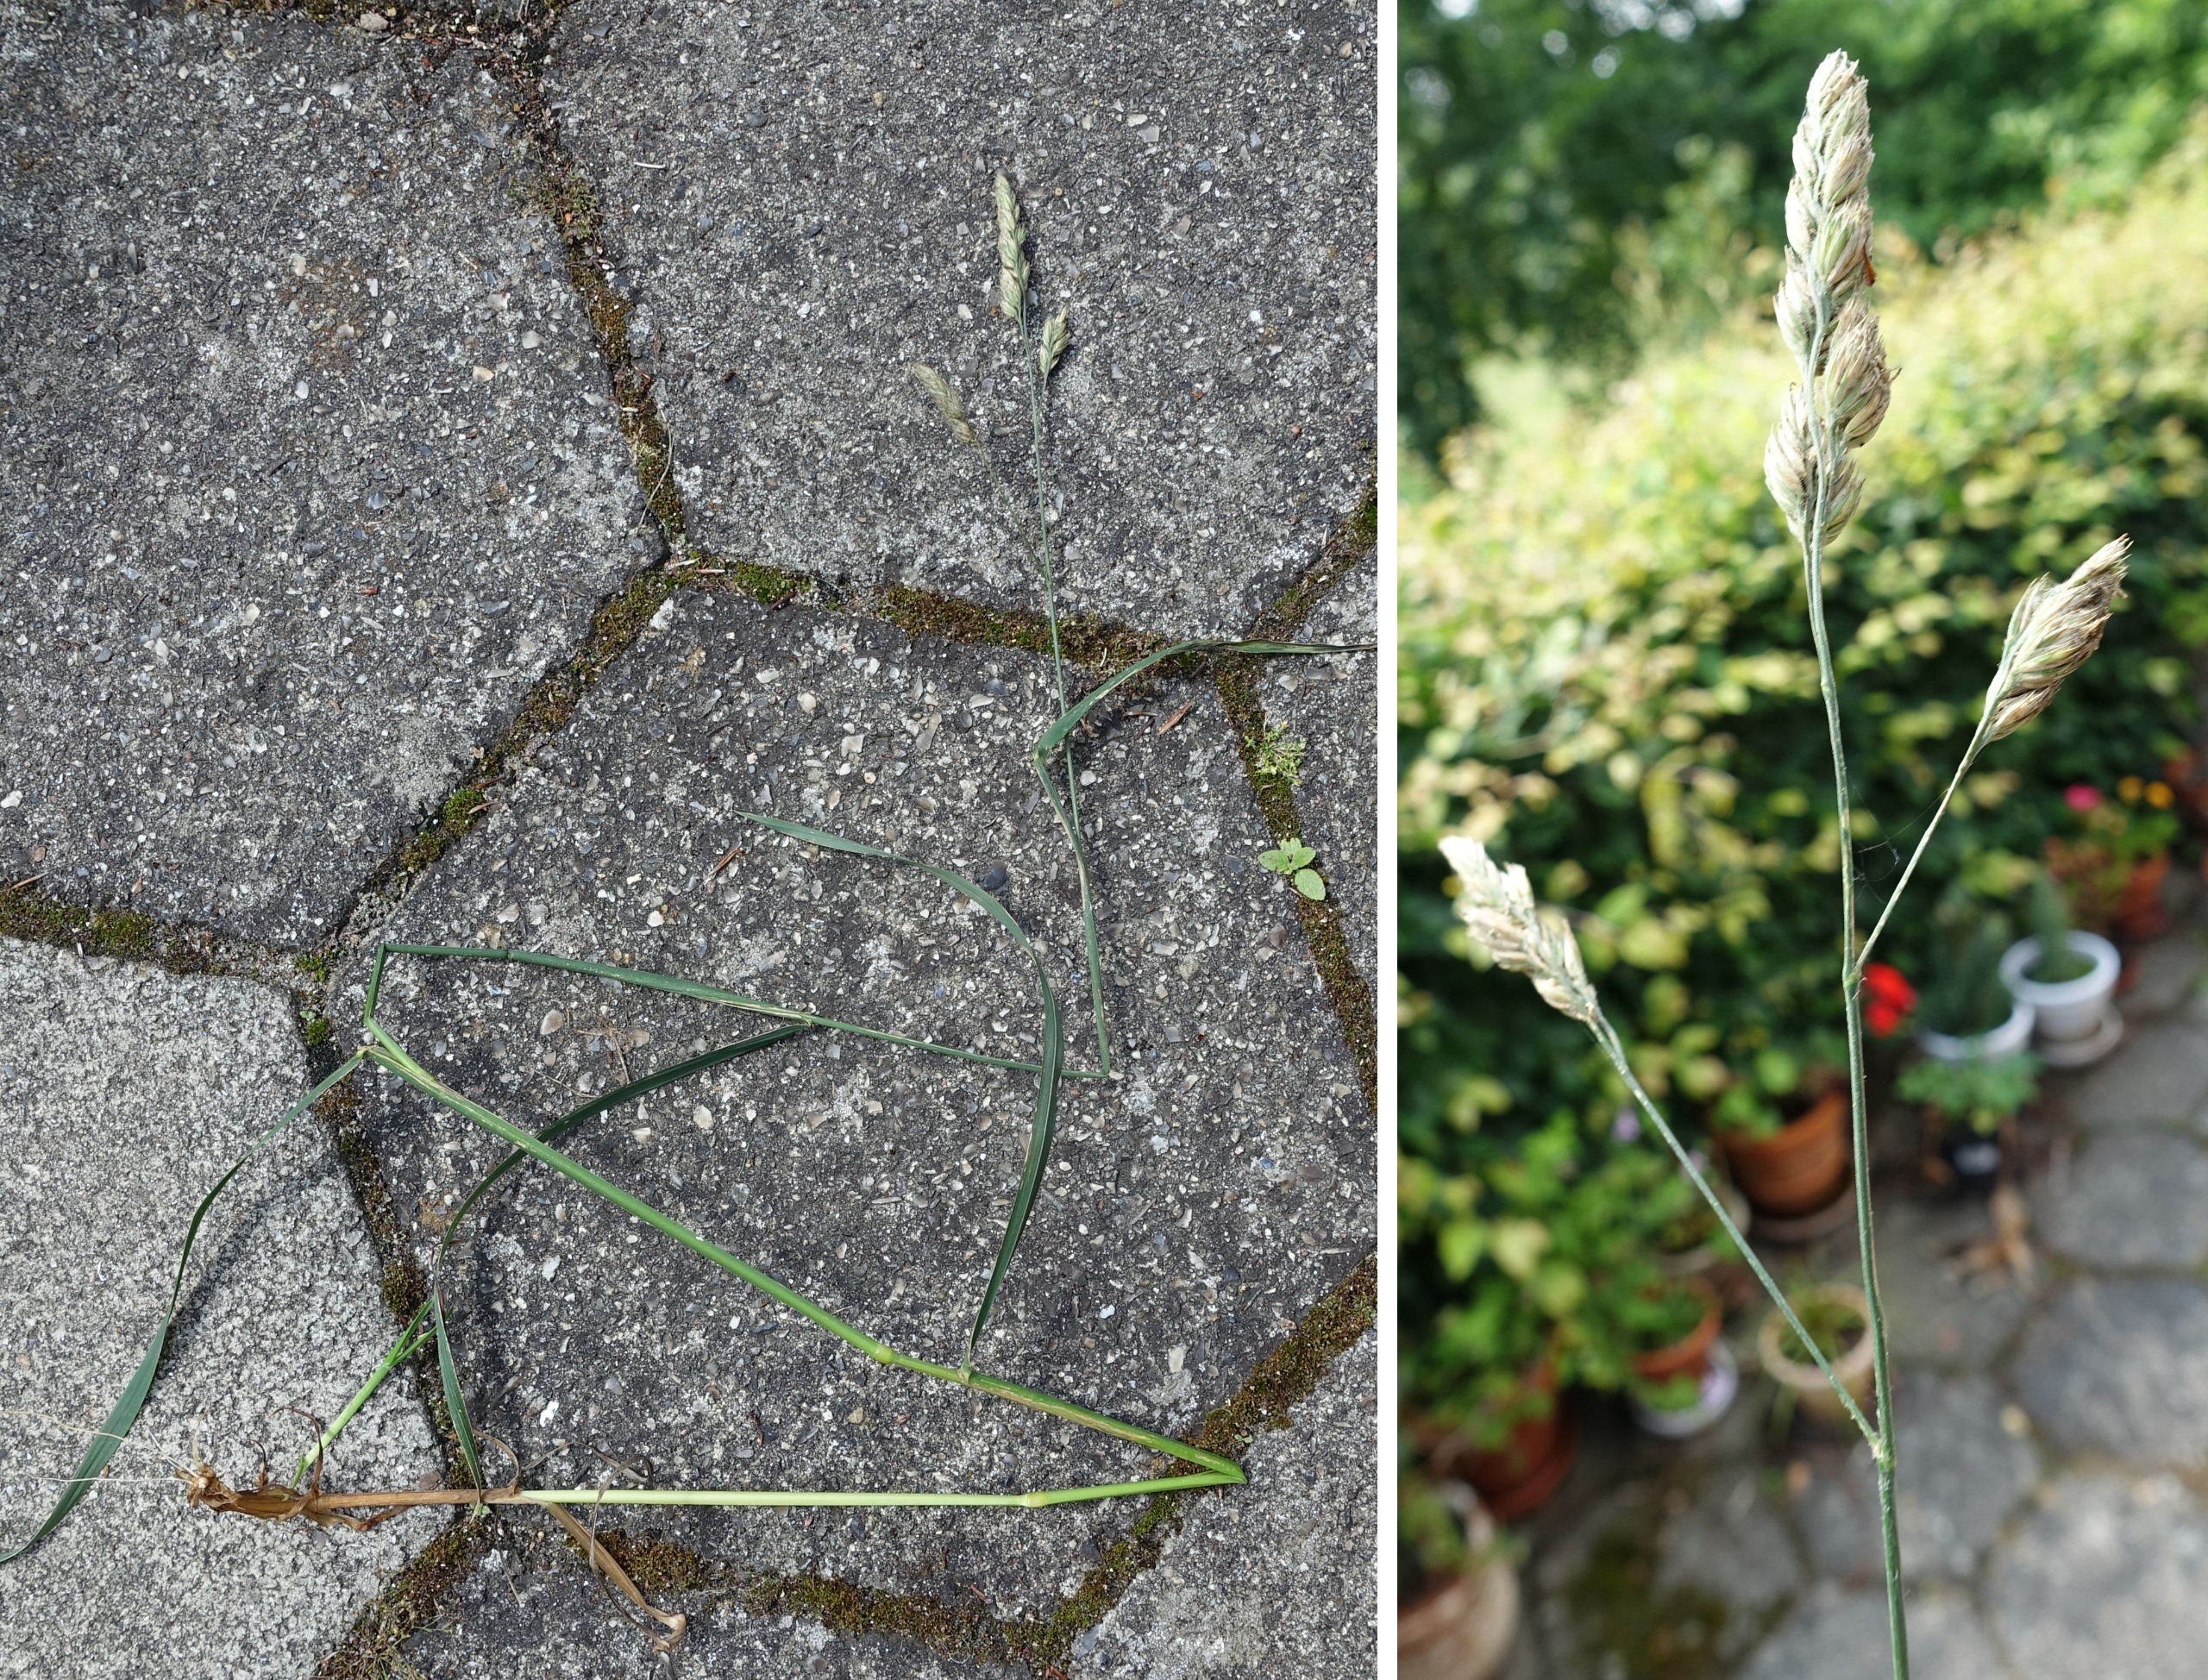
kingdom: Plantae
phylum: Tracheophyta
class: Liliopsida
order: Poales
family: Poaceae
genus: Dactylis
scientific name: Dactylis glomerata
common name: Almindelig hundegræs
